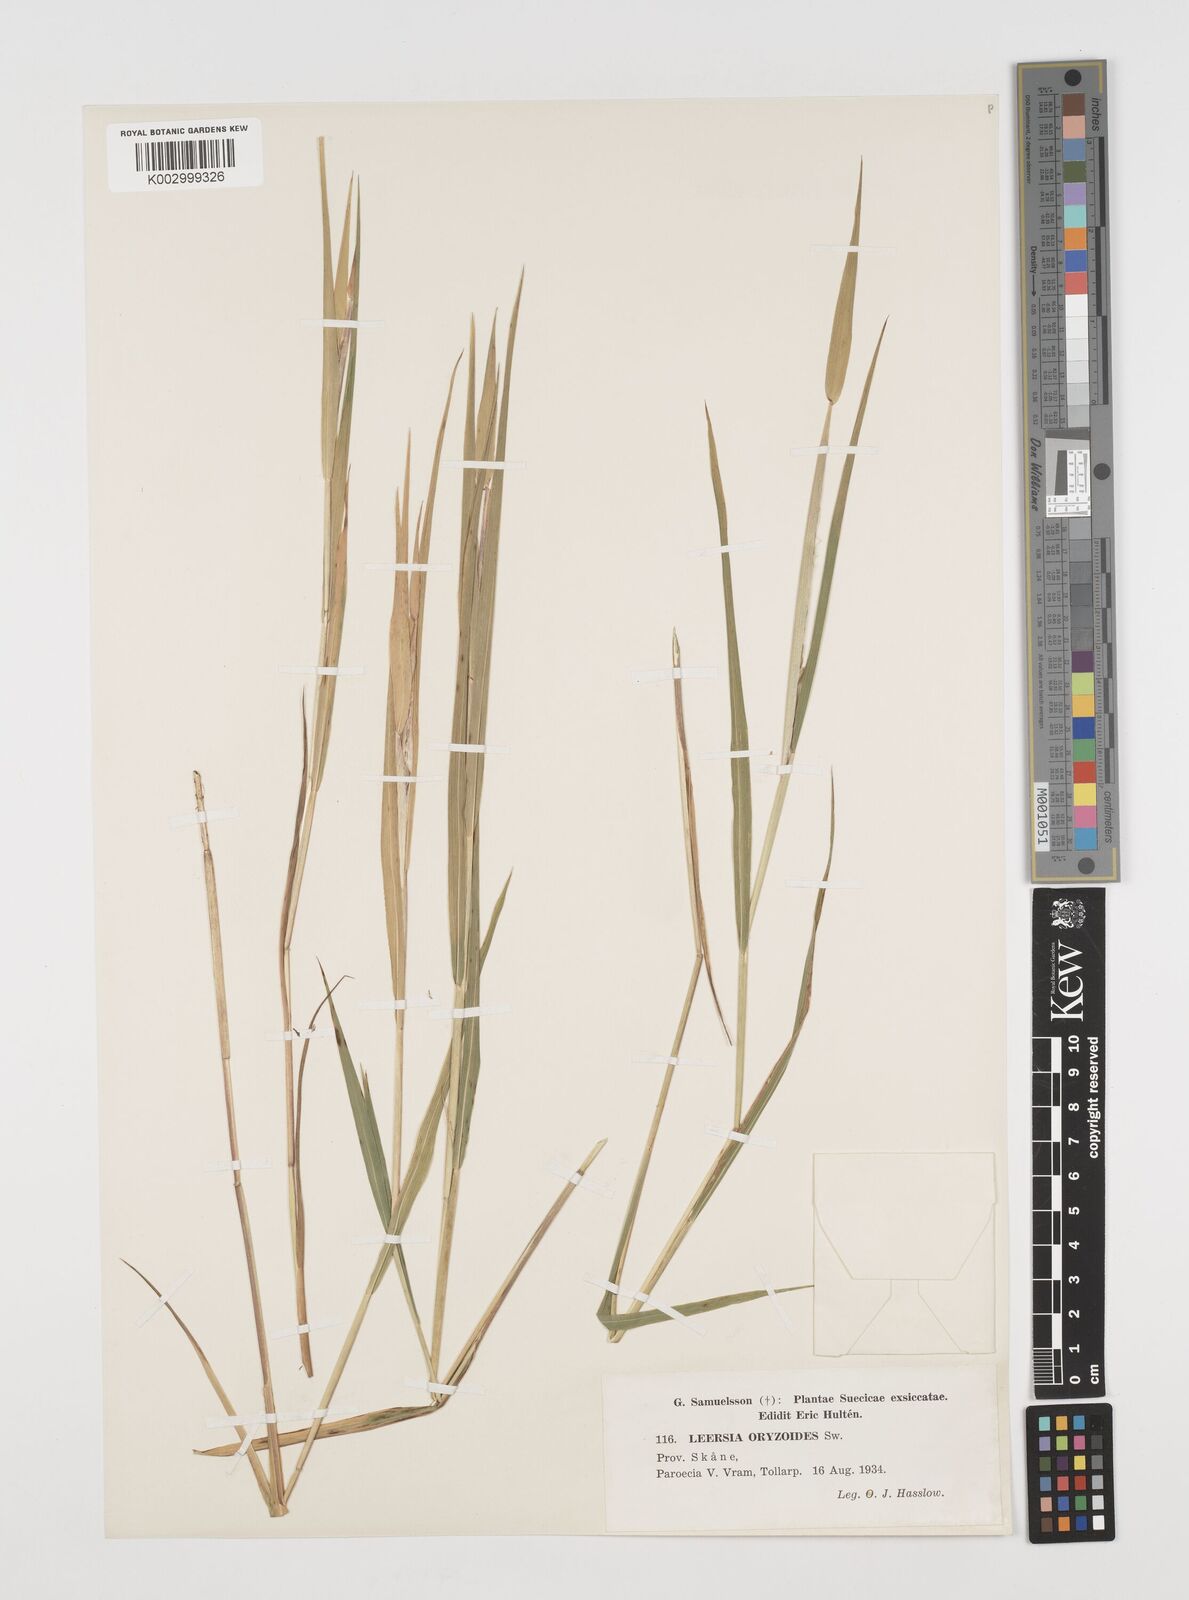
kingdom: Plantae
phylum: Tracheophyta
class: Liliopsida
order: Poales
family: Poaceae
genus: Leersia
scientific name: Leersia oryzoides
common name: Cut-grass
